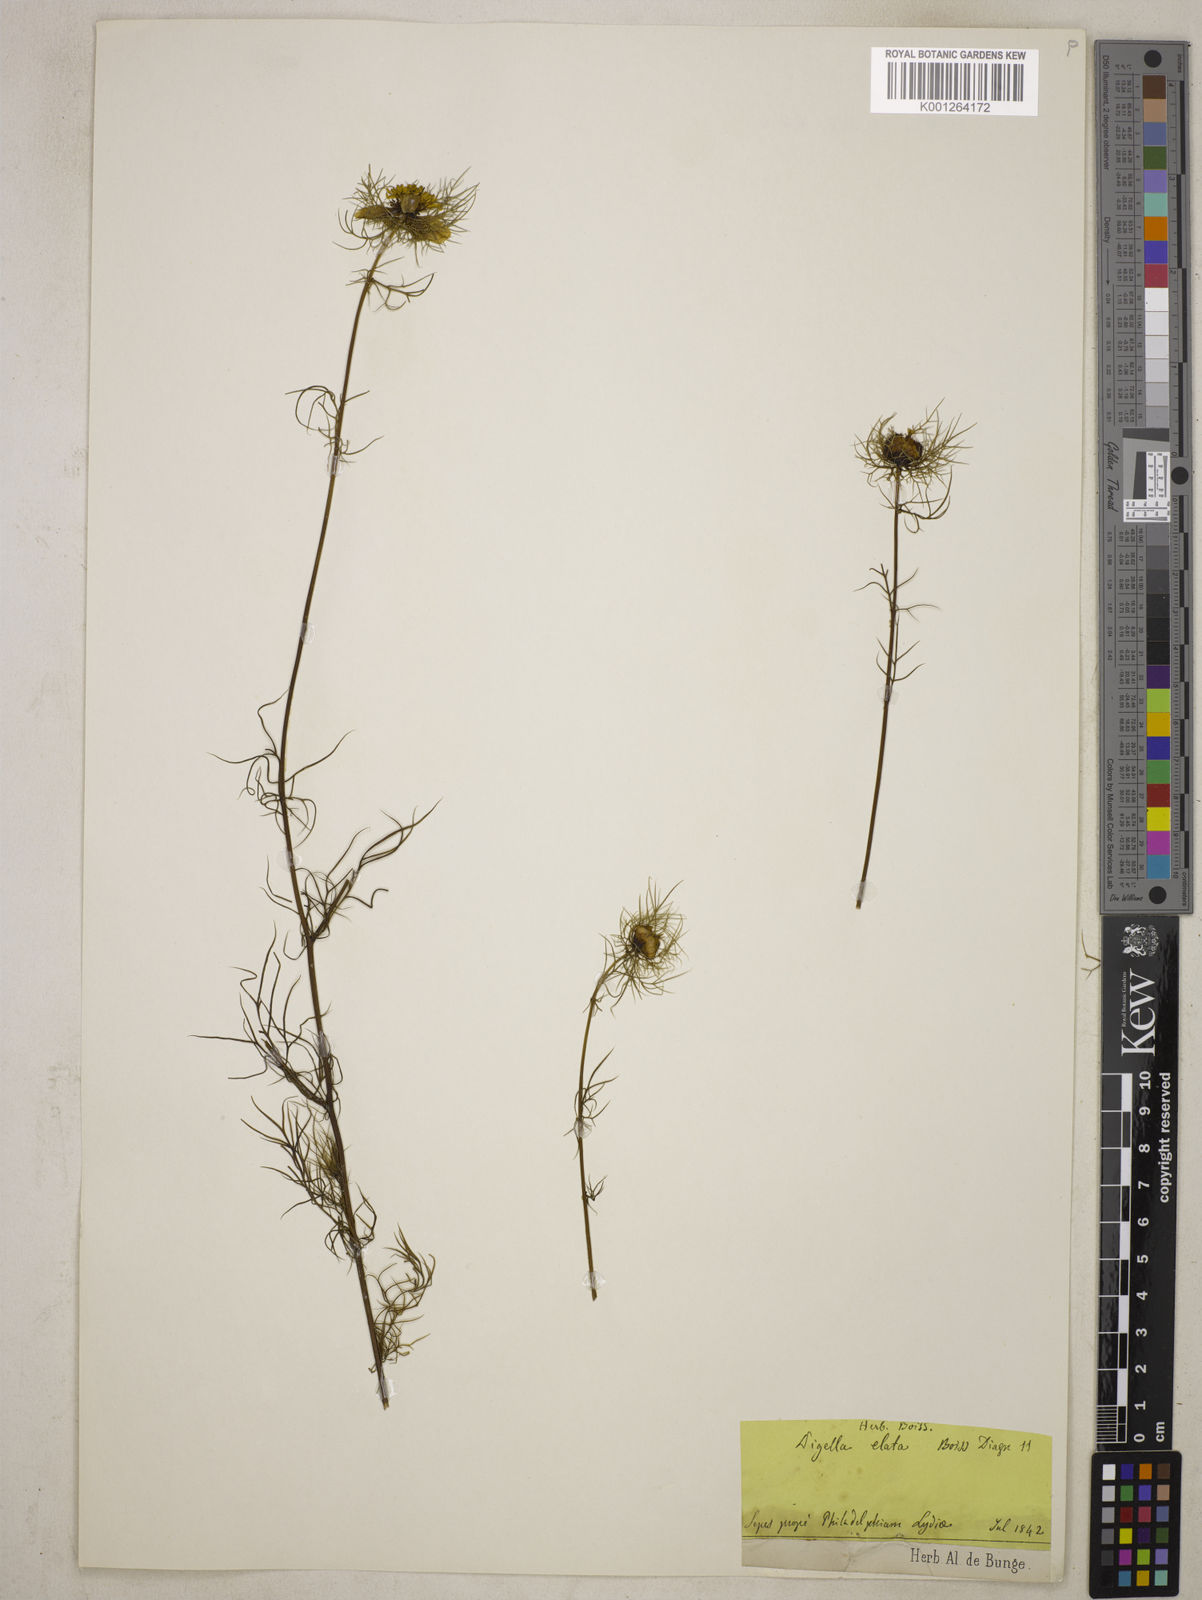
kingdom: Plantae
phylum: Tracheophyta
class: Magnoliopsida
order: Ranunculales
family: Ranunculaceae
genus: Nigella
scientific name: Nigella elata
